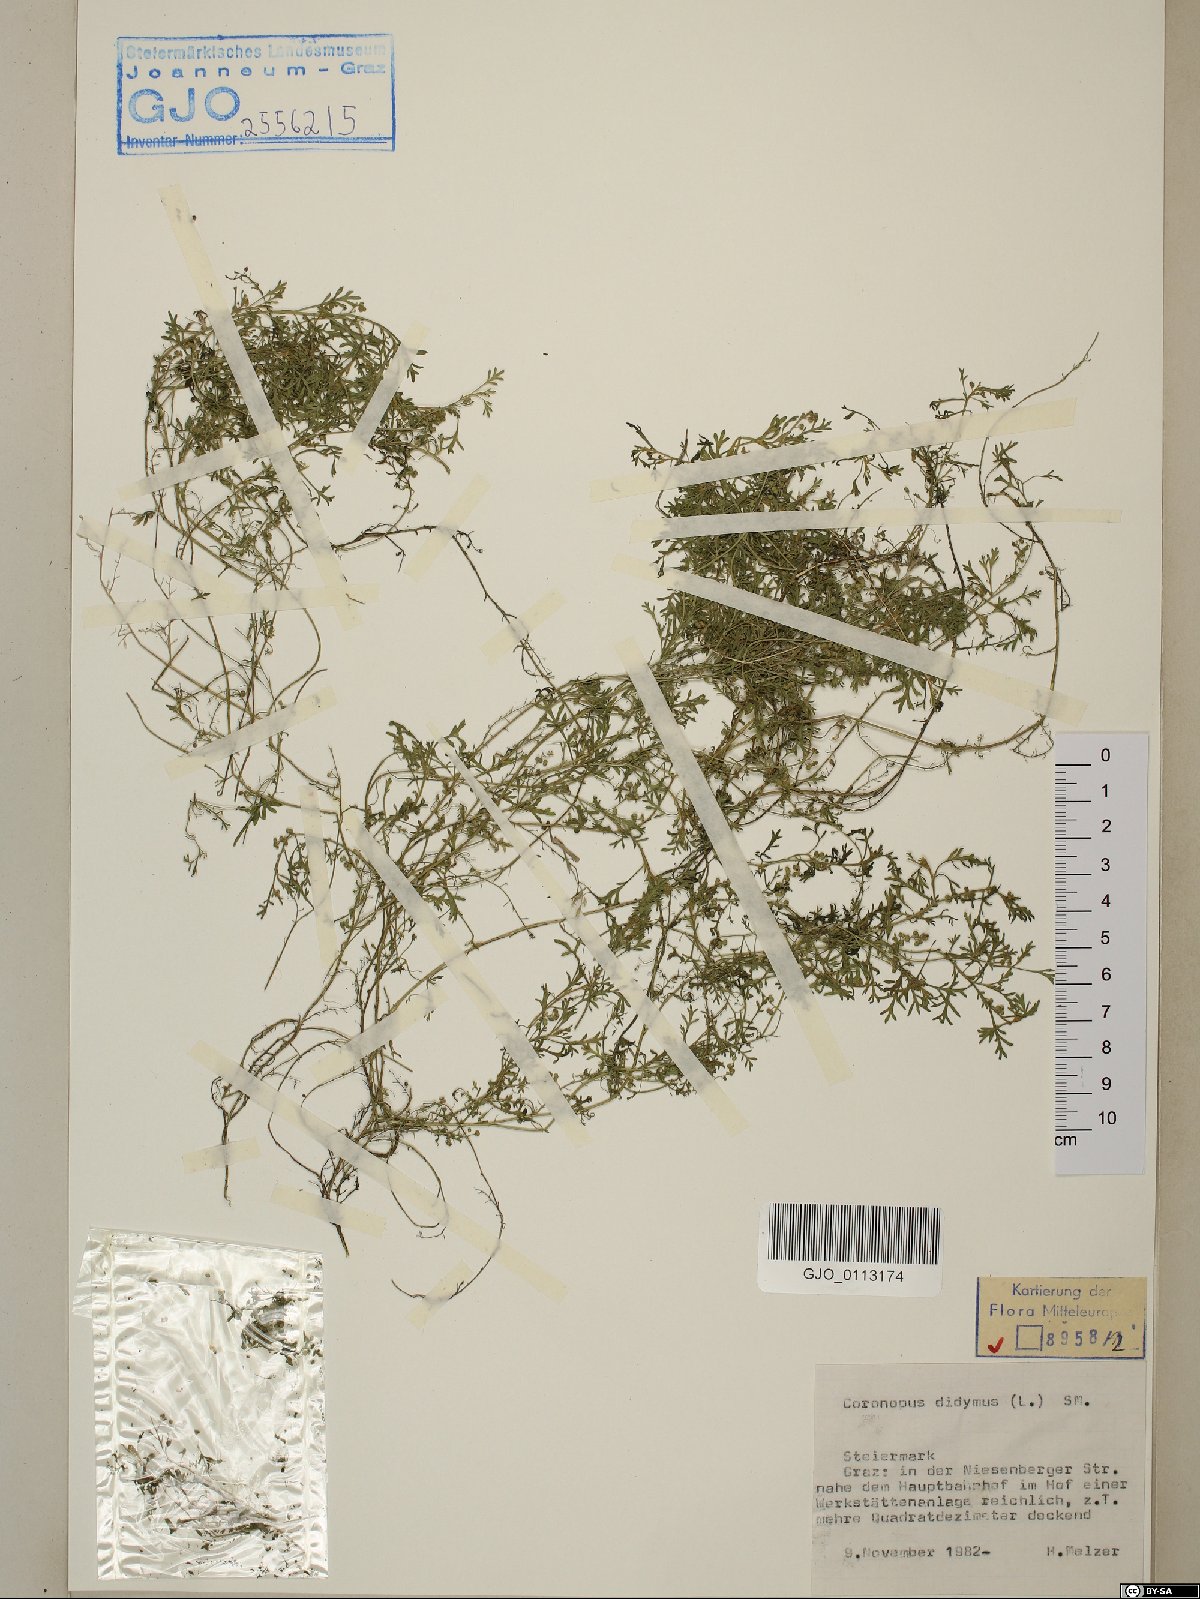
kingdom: Plantae
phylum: Tracheophyta
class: Magnoliopsida
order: Brassicales
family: Brassicaceae
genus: Lepidium
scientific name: Lepidium didymum
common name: Lesser swinecress
